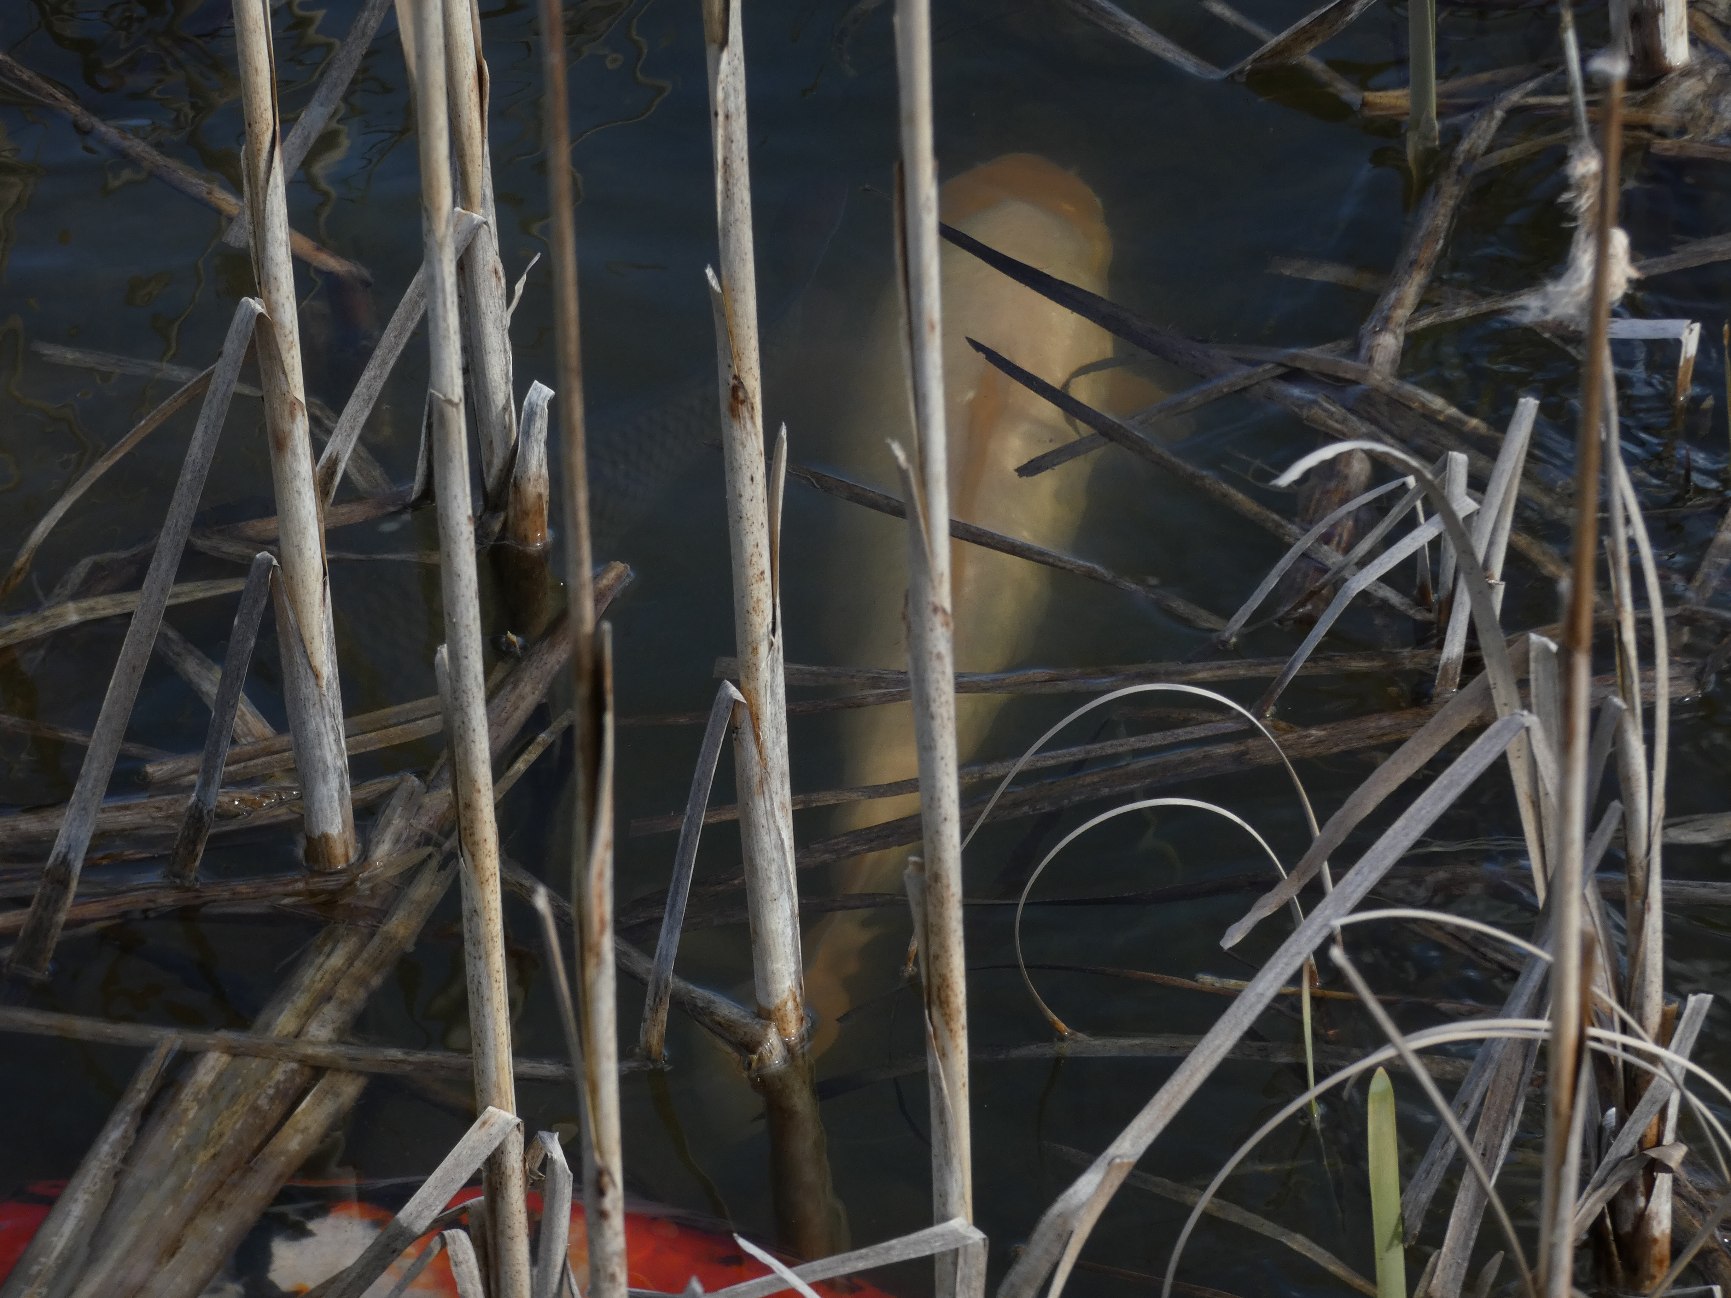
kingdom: Animalia
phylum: Chordata
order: Cypriniformes
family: Cyprinidae
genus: Cyprinus
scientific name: Cyprinus carpio
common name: Karpe
